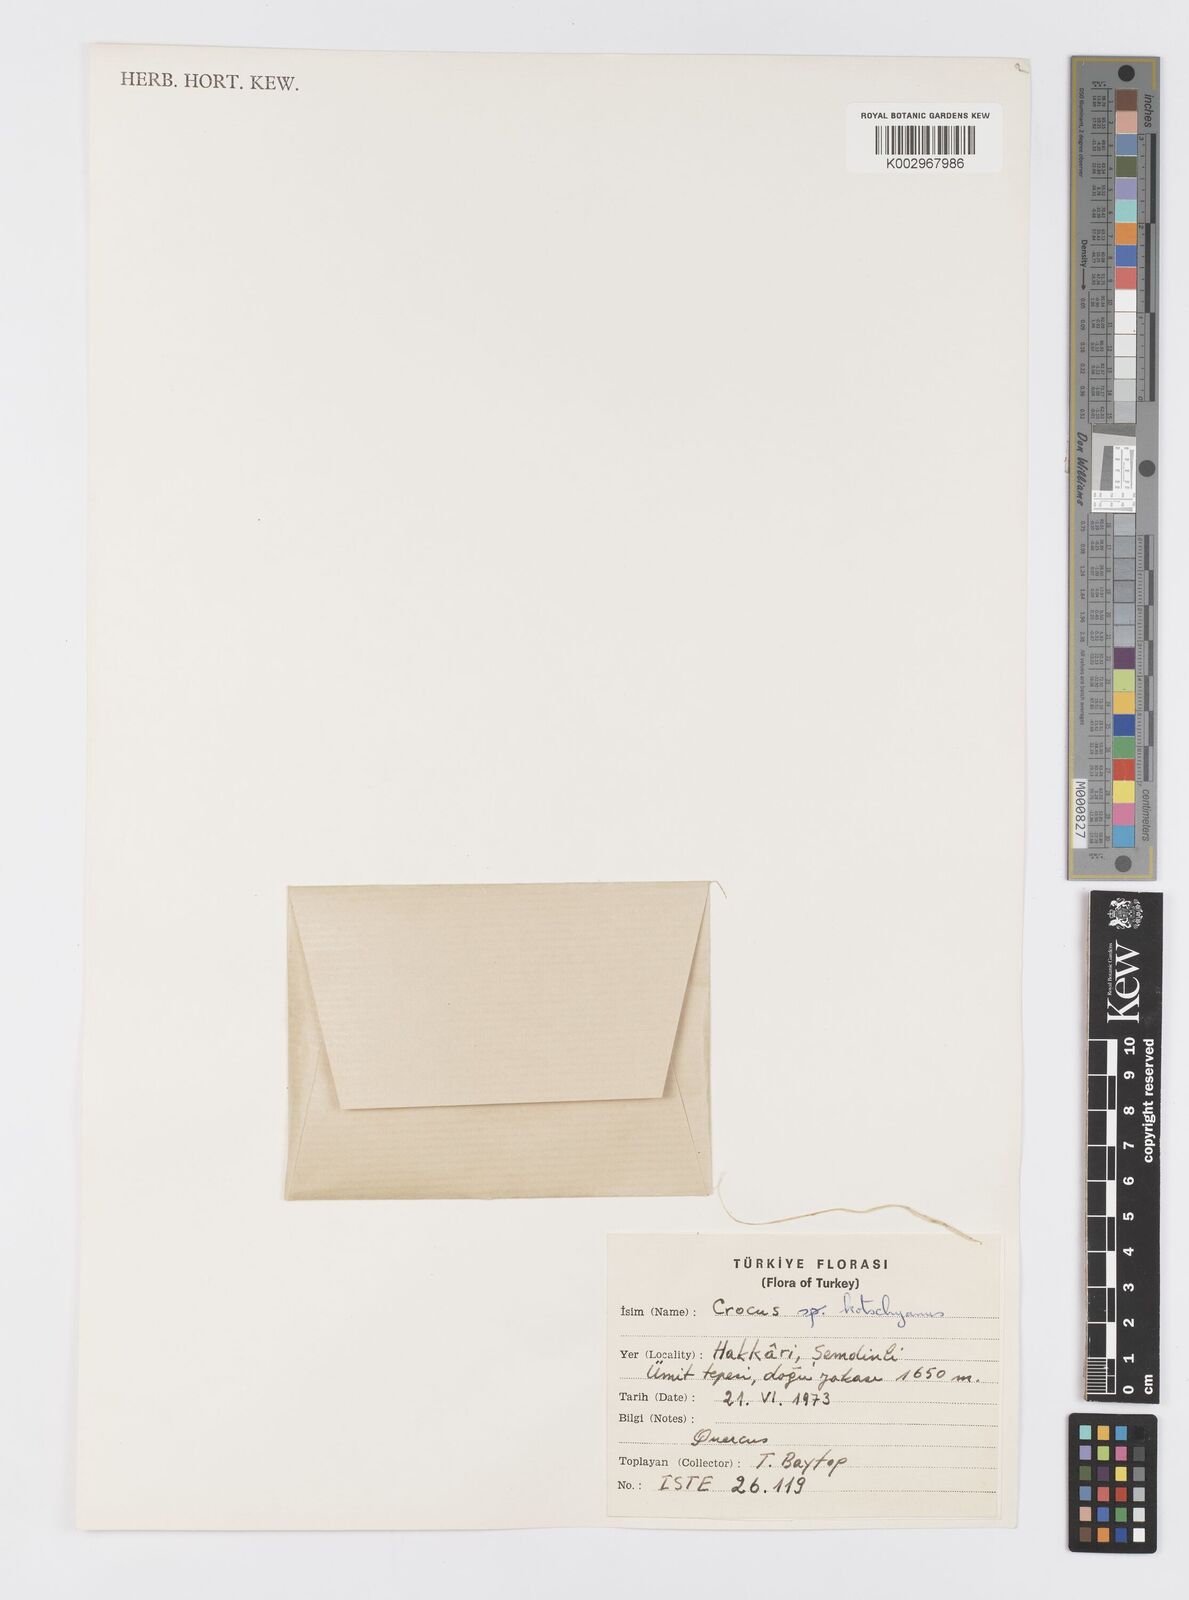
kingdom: Plantae
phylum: Tracheophyta
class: Liliopsida
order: Asparagales
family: Iridaceae
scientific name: Iridaceae
